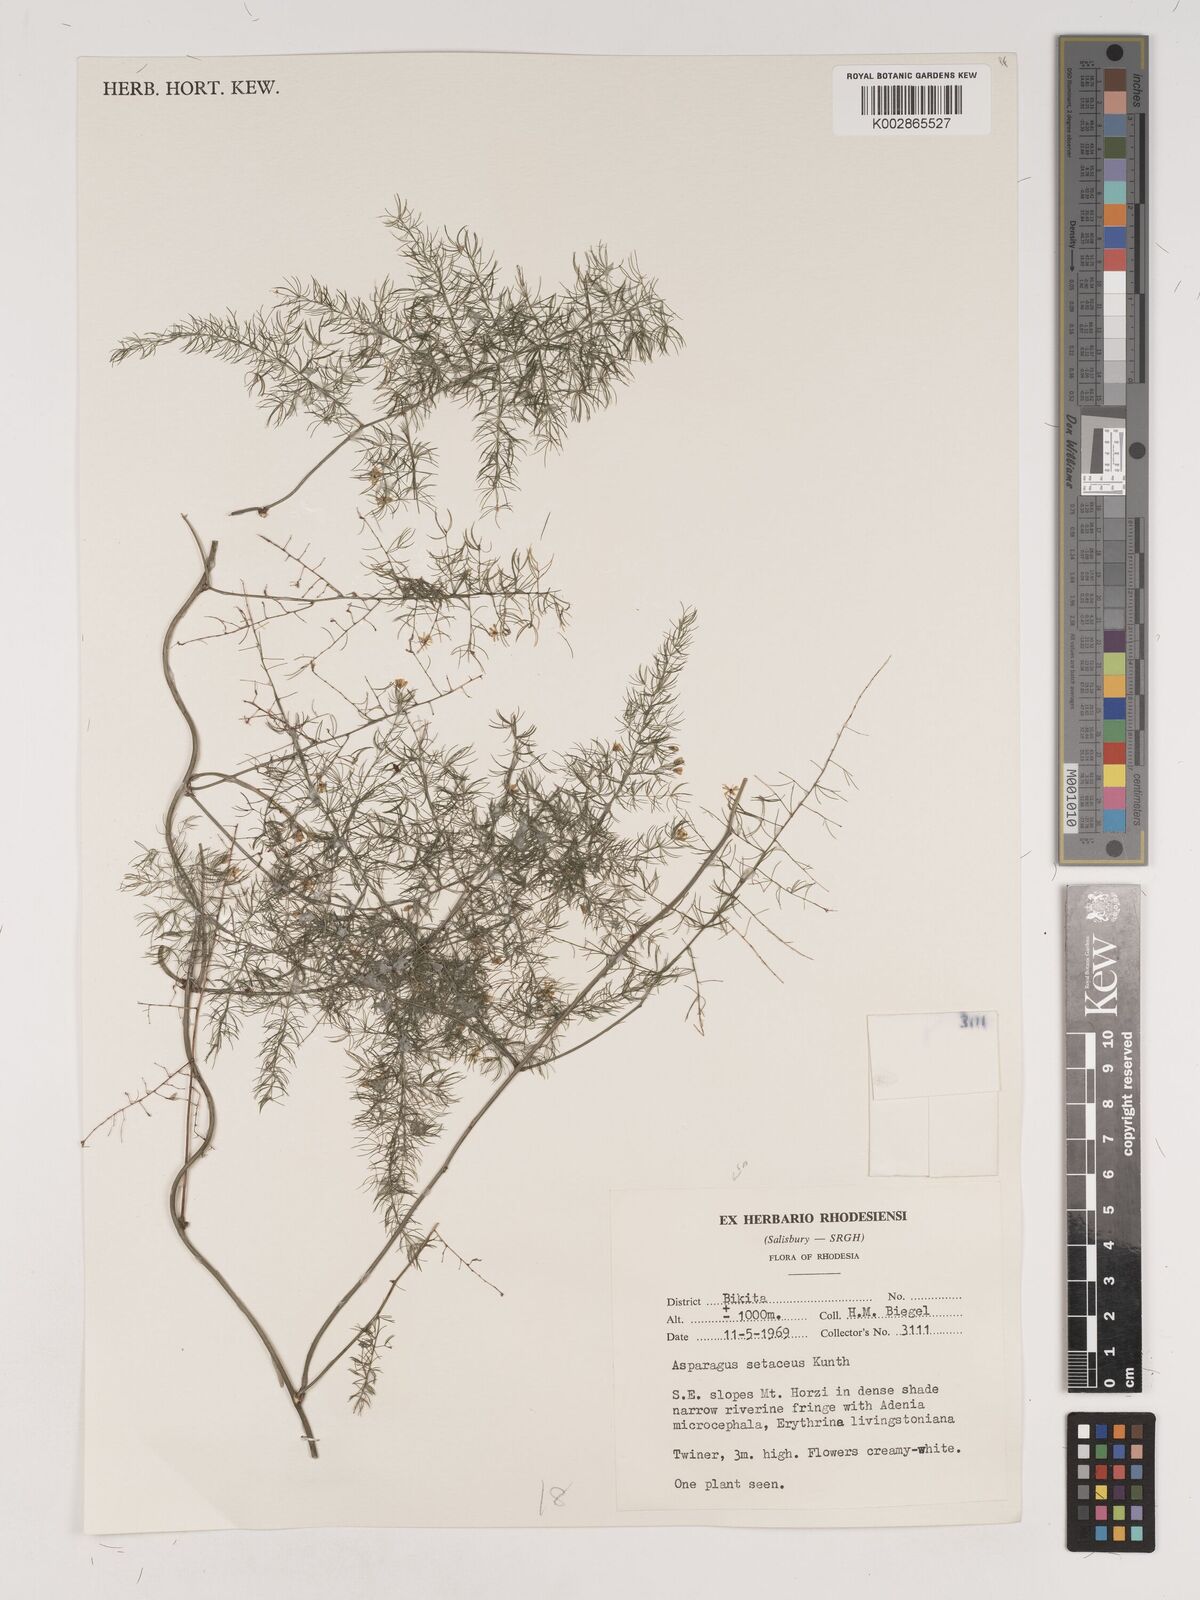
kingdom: Plantae
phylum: Tracheophyta
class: Liliopsida
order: Asparagales
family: Asparagaceae
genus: Asparagus
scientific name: Asparagus setaceus
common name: Common asparagus fern
